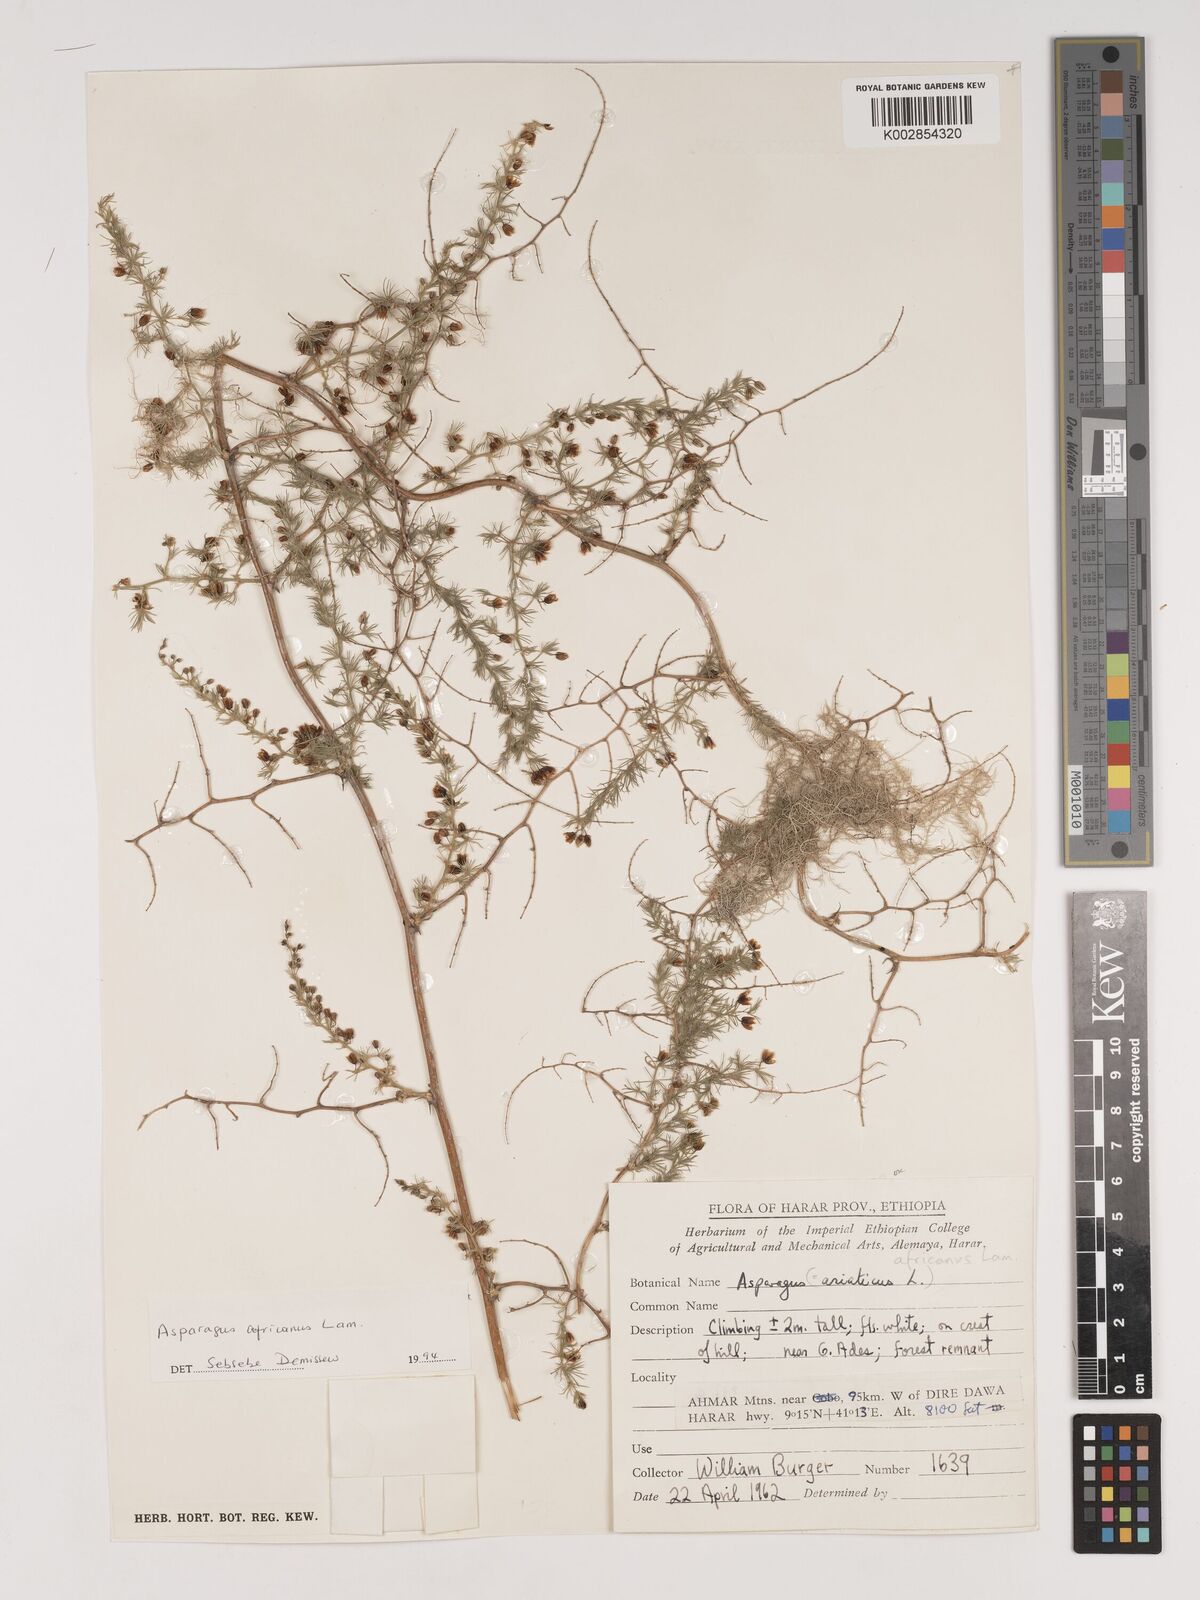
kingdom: Plantae
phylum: Tracheophyta
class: Liliopsida
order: Asparagales
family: Asparagaceae
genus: Asparagus
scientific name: Asparagus africanus
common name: Asparagus-fern
